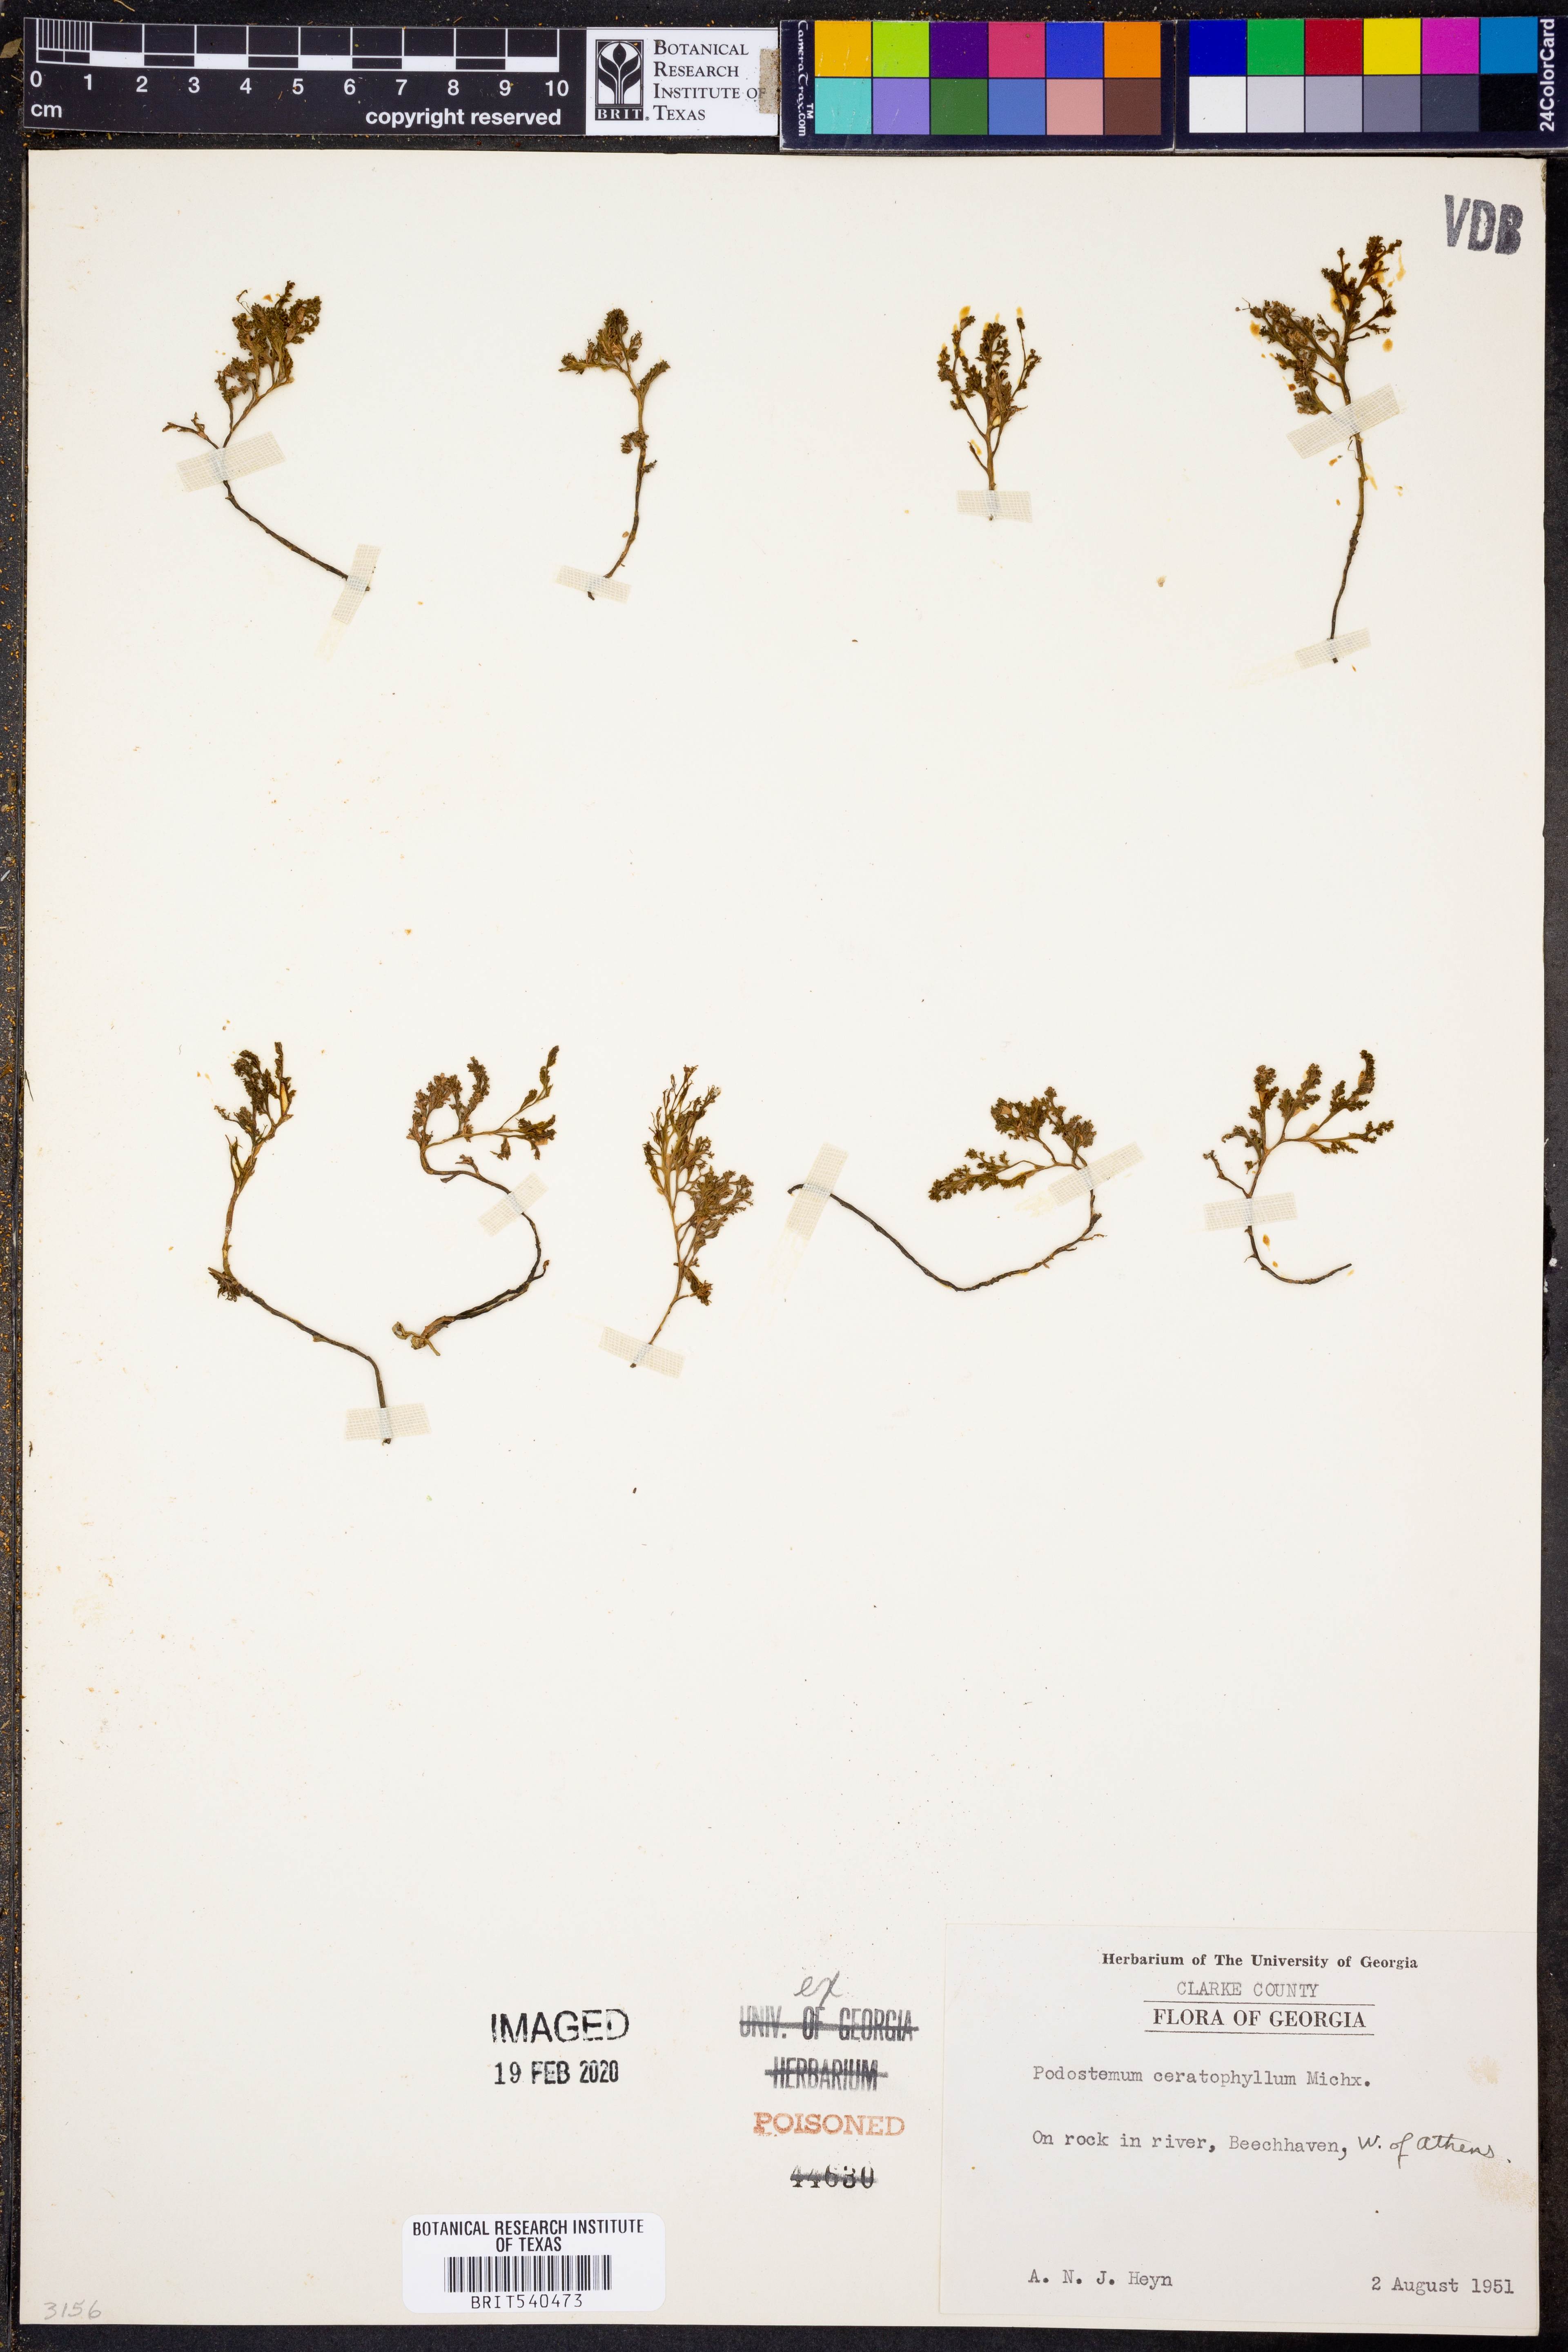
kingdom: Plantae
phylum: Tracheophyta
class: Magnoliopsida
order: Malpighiales
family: Podostemaceae
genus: Podostemum
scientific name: Podostemum ceratophyllum
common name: Horn-leaved riverweed
